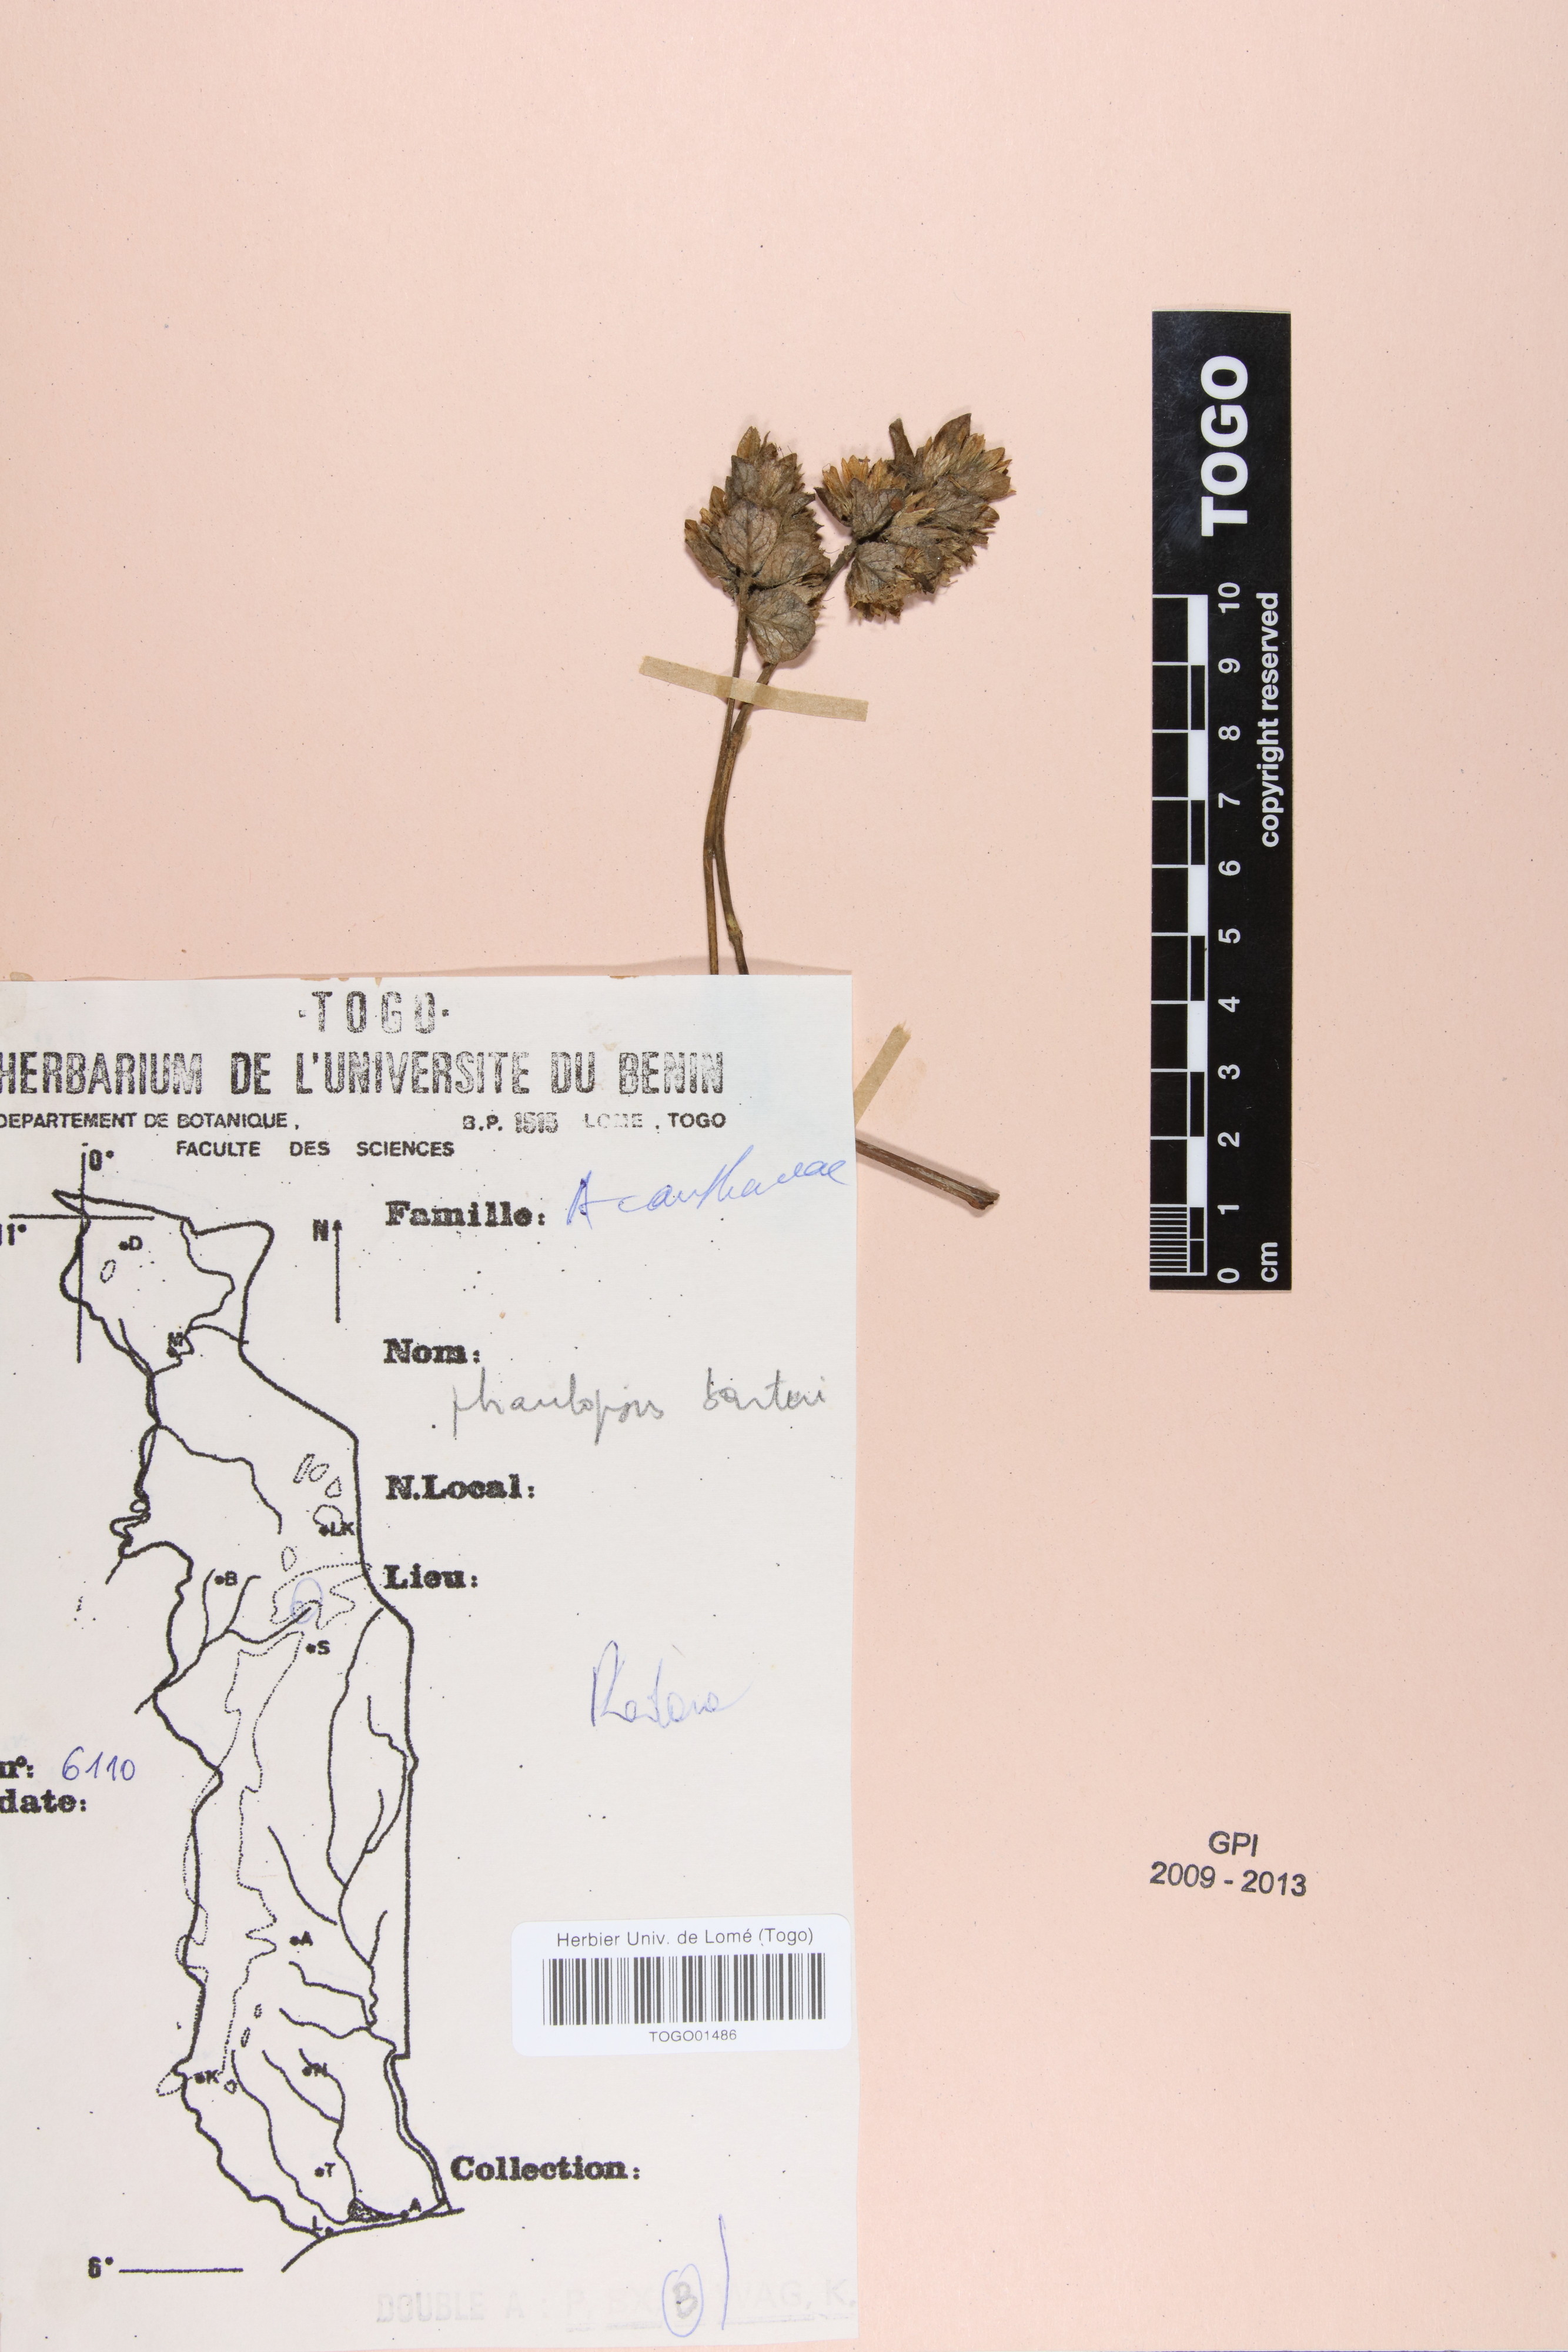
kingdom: Plantae
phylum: Tracheophyta
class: Magnoliopsida
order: Lamiales
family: Acanthaceae
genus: Phaulopsis
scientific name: Phaulopsis barteri
